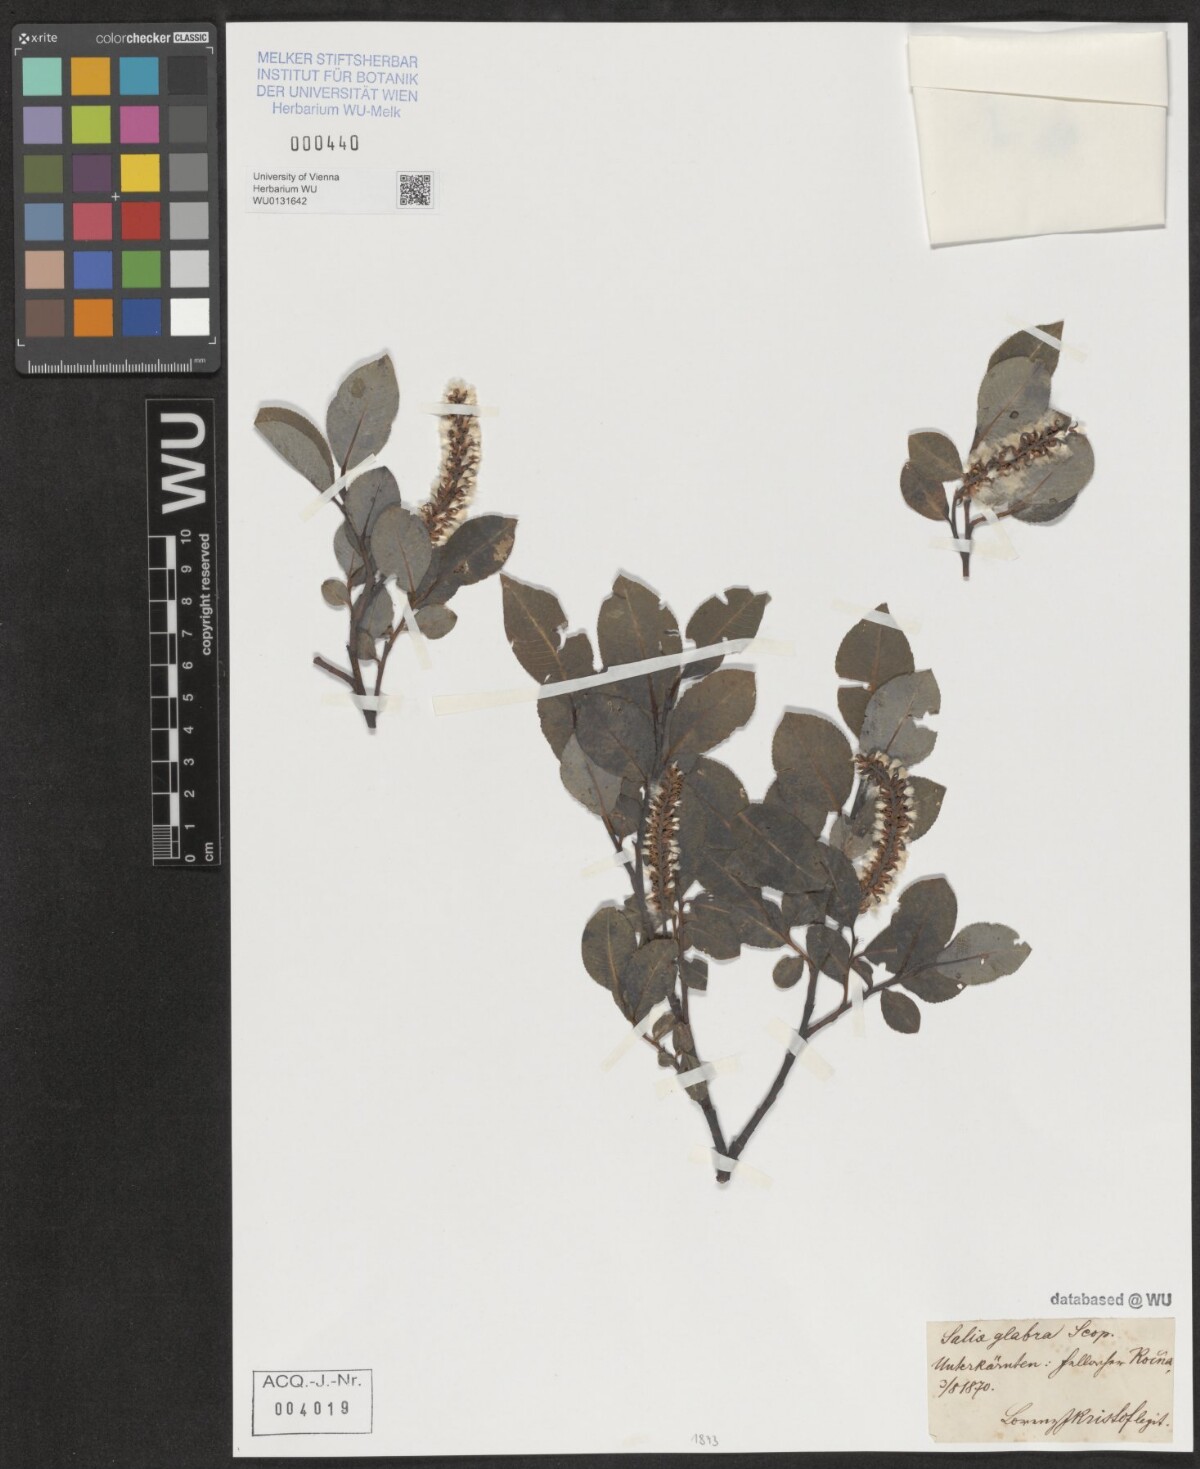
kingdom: Plantae
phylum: Tracheophyta
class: Magnoliopsida
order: Malpighiales
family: Salicaceae
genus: Salix
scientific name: Salix glabra
